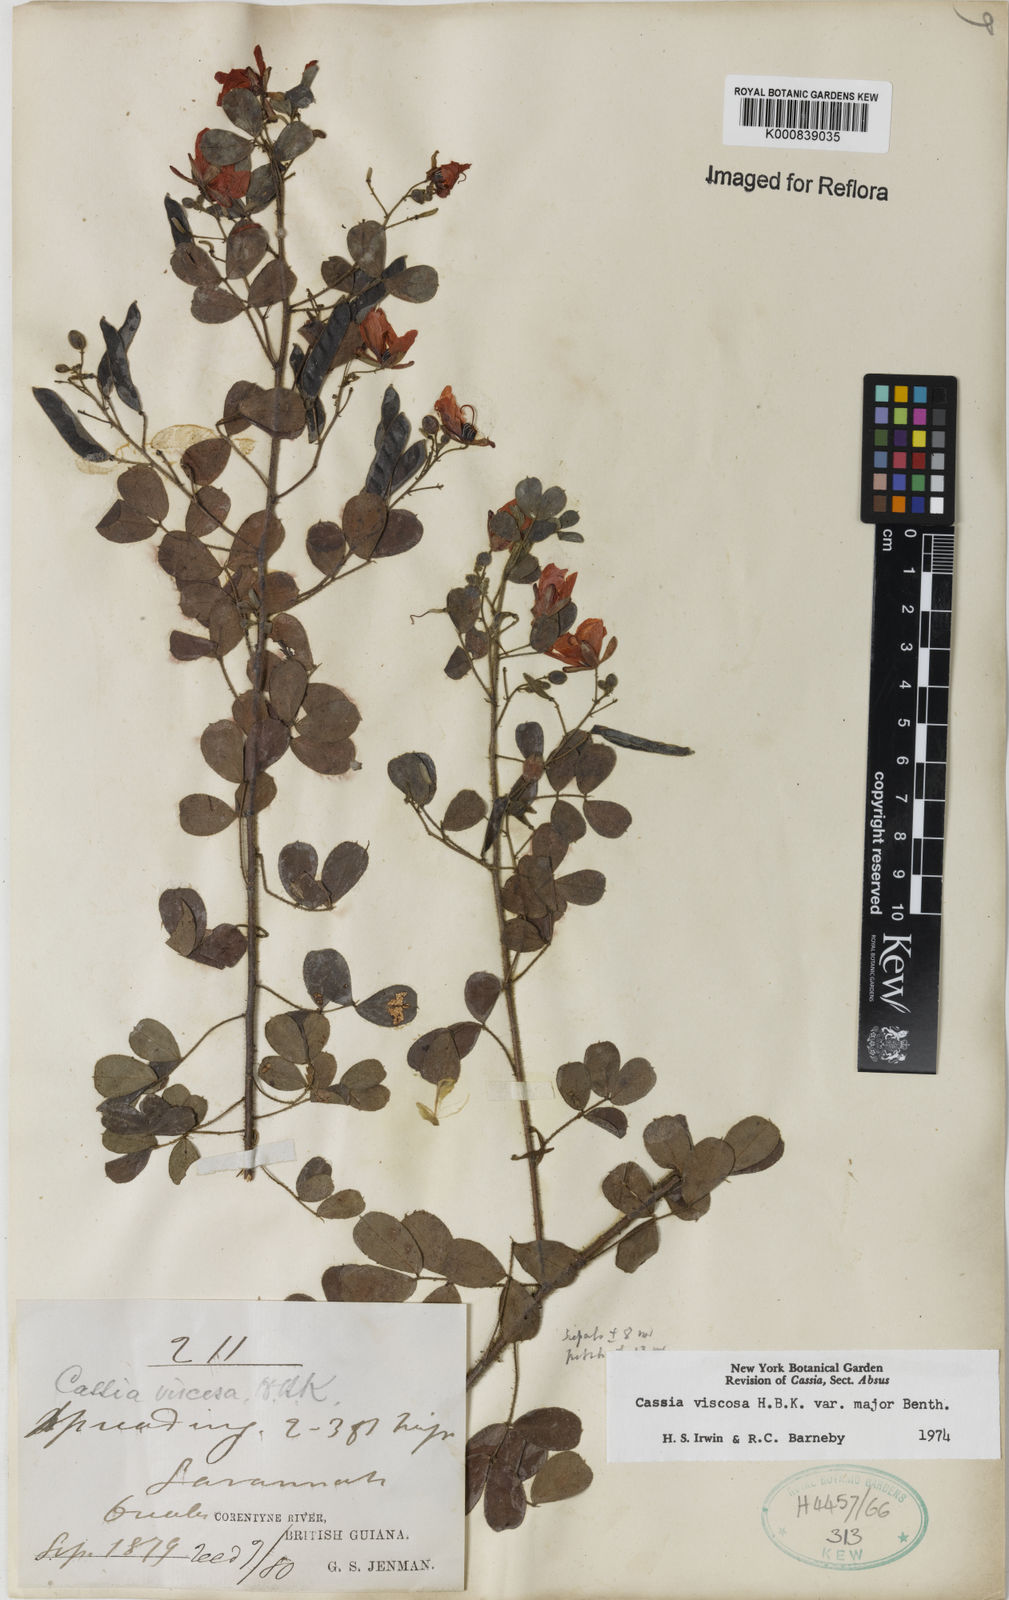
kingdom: Plantae
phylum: Tracheophyta
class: Magnoliopsida
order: Fabales
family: Fabaceae
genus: Chamaecrista
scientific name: Chamaecrista viscosa
